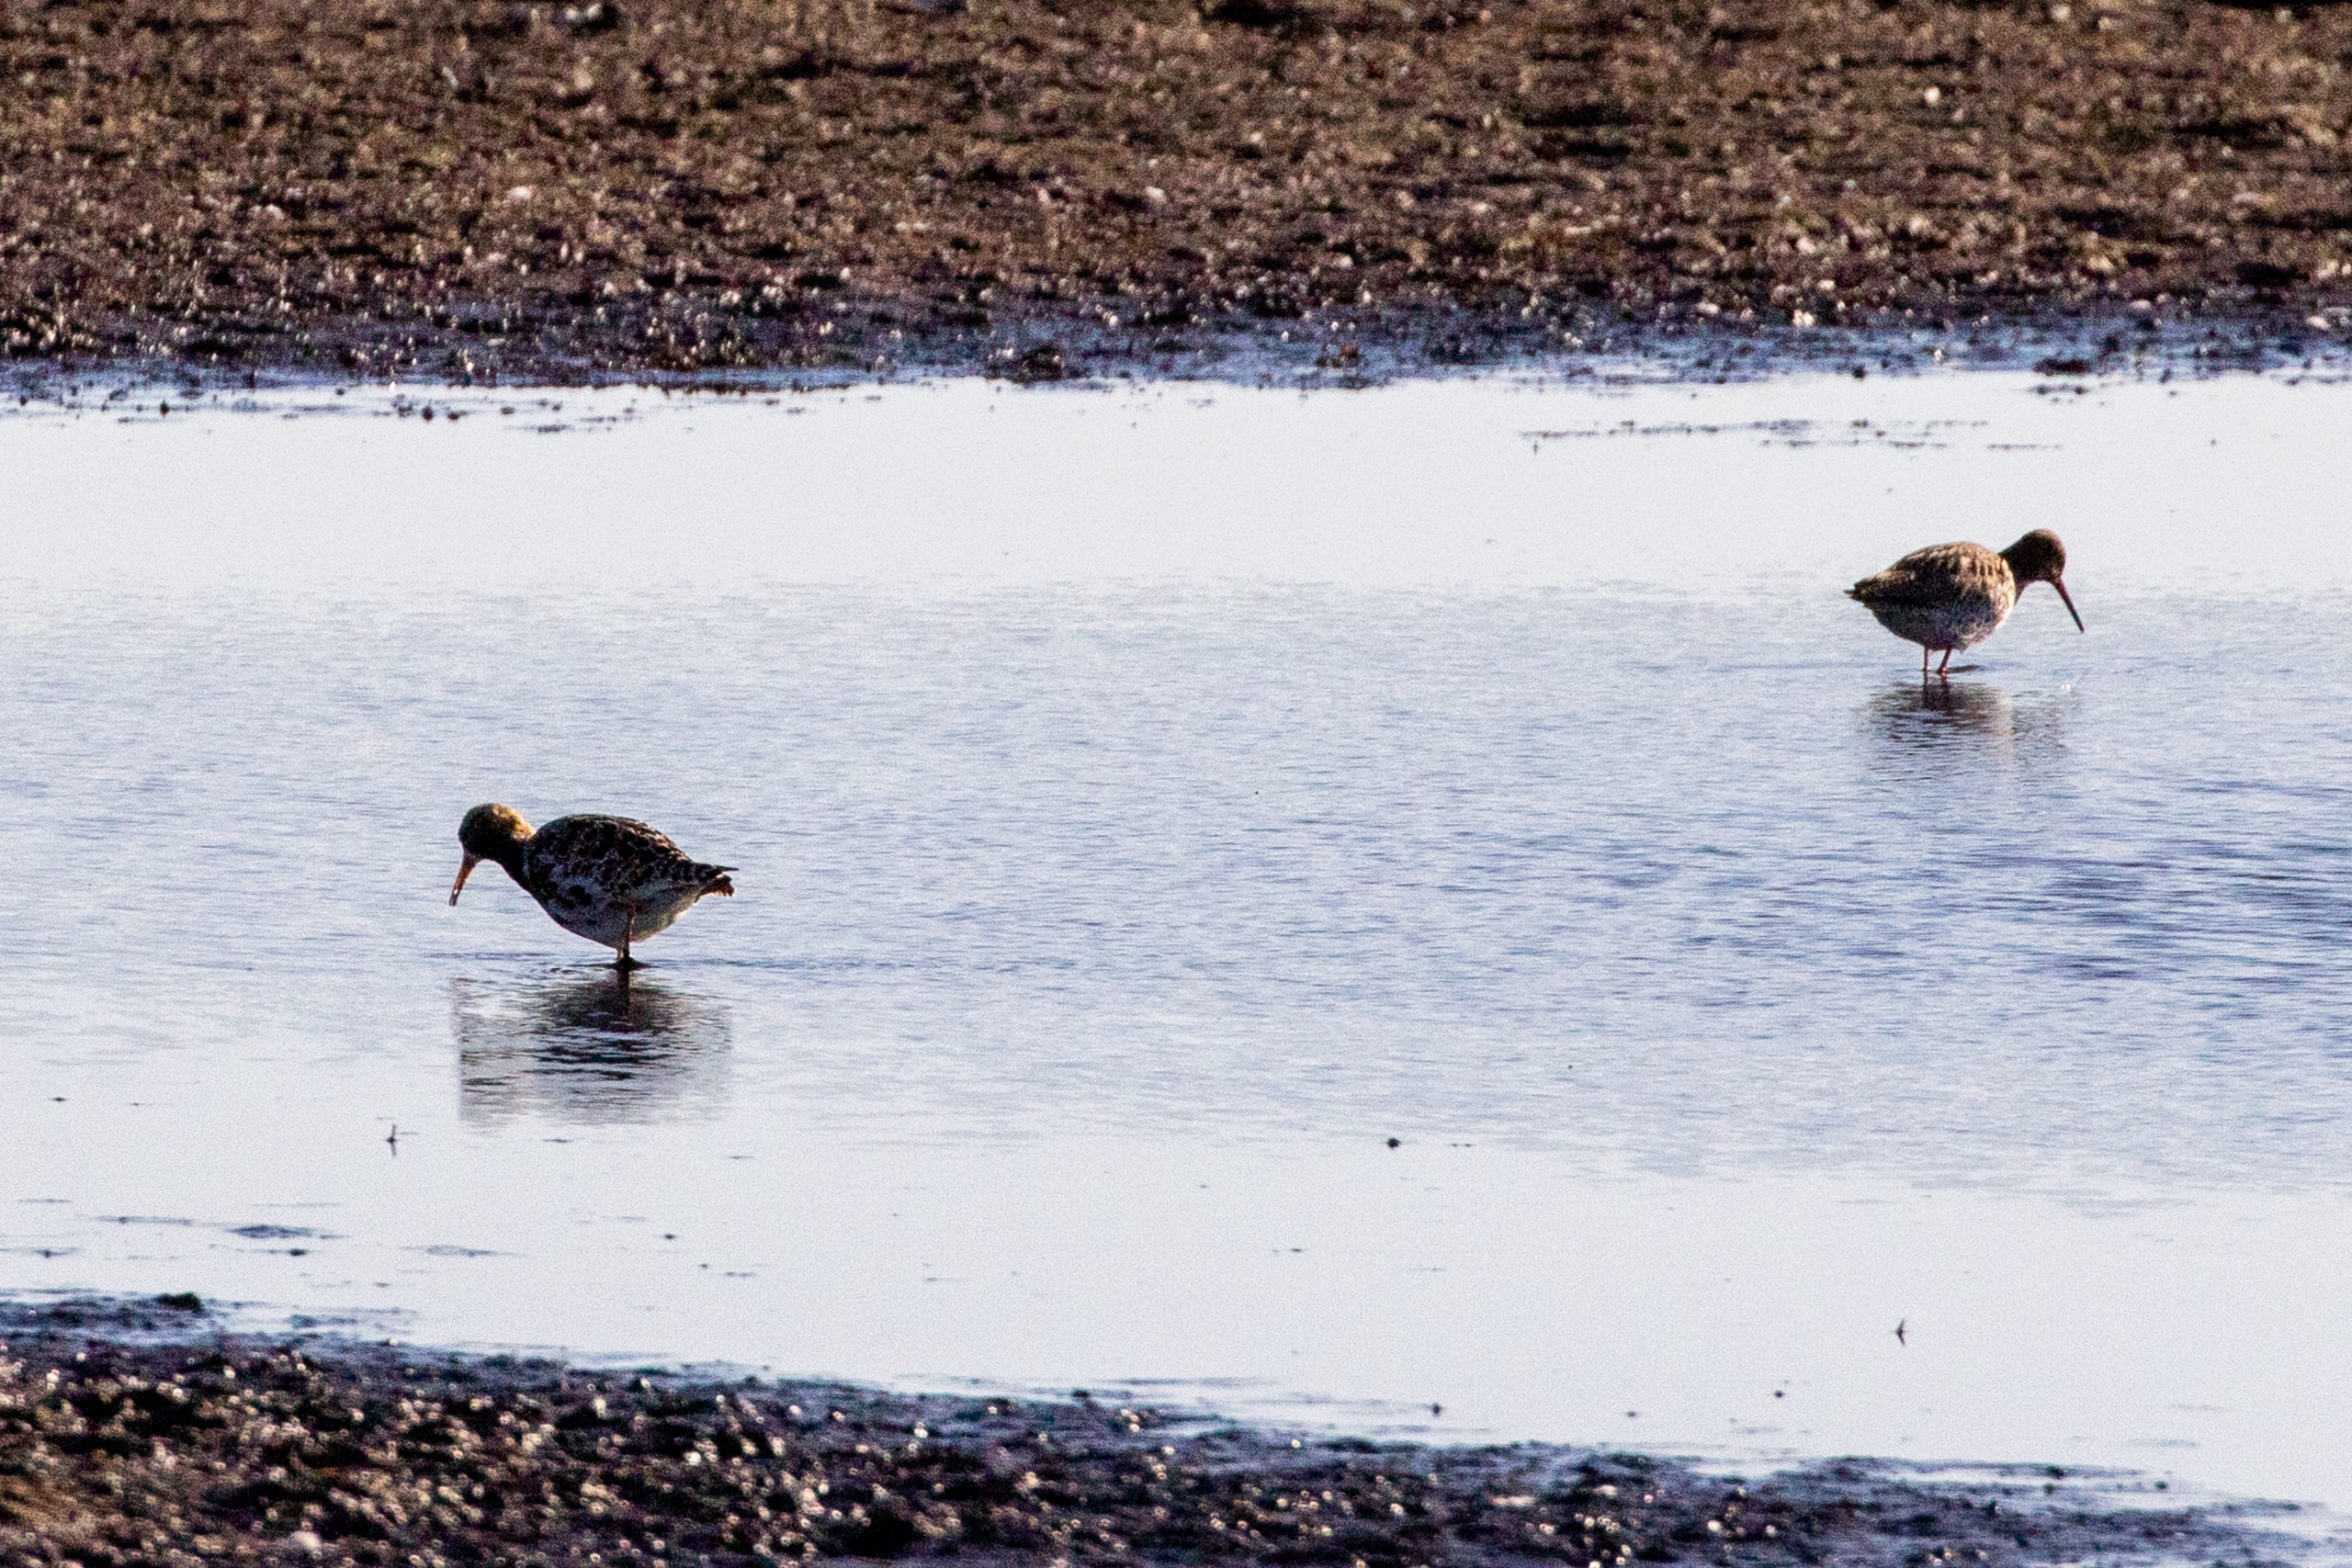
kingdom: Animalia
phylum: Chordata
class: Aves
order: Charadriiformes
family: Scolopacidae
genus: Tringa
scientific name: Tringa totanus
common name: Rødben
